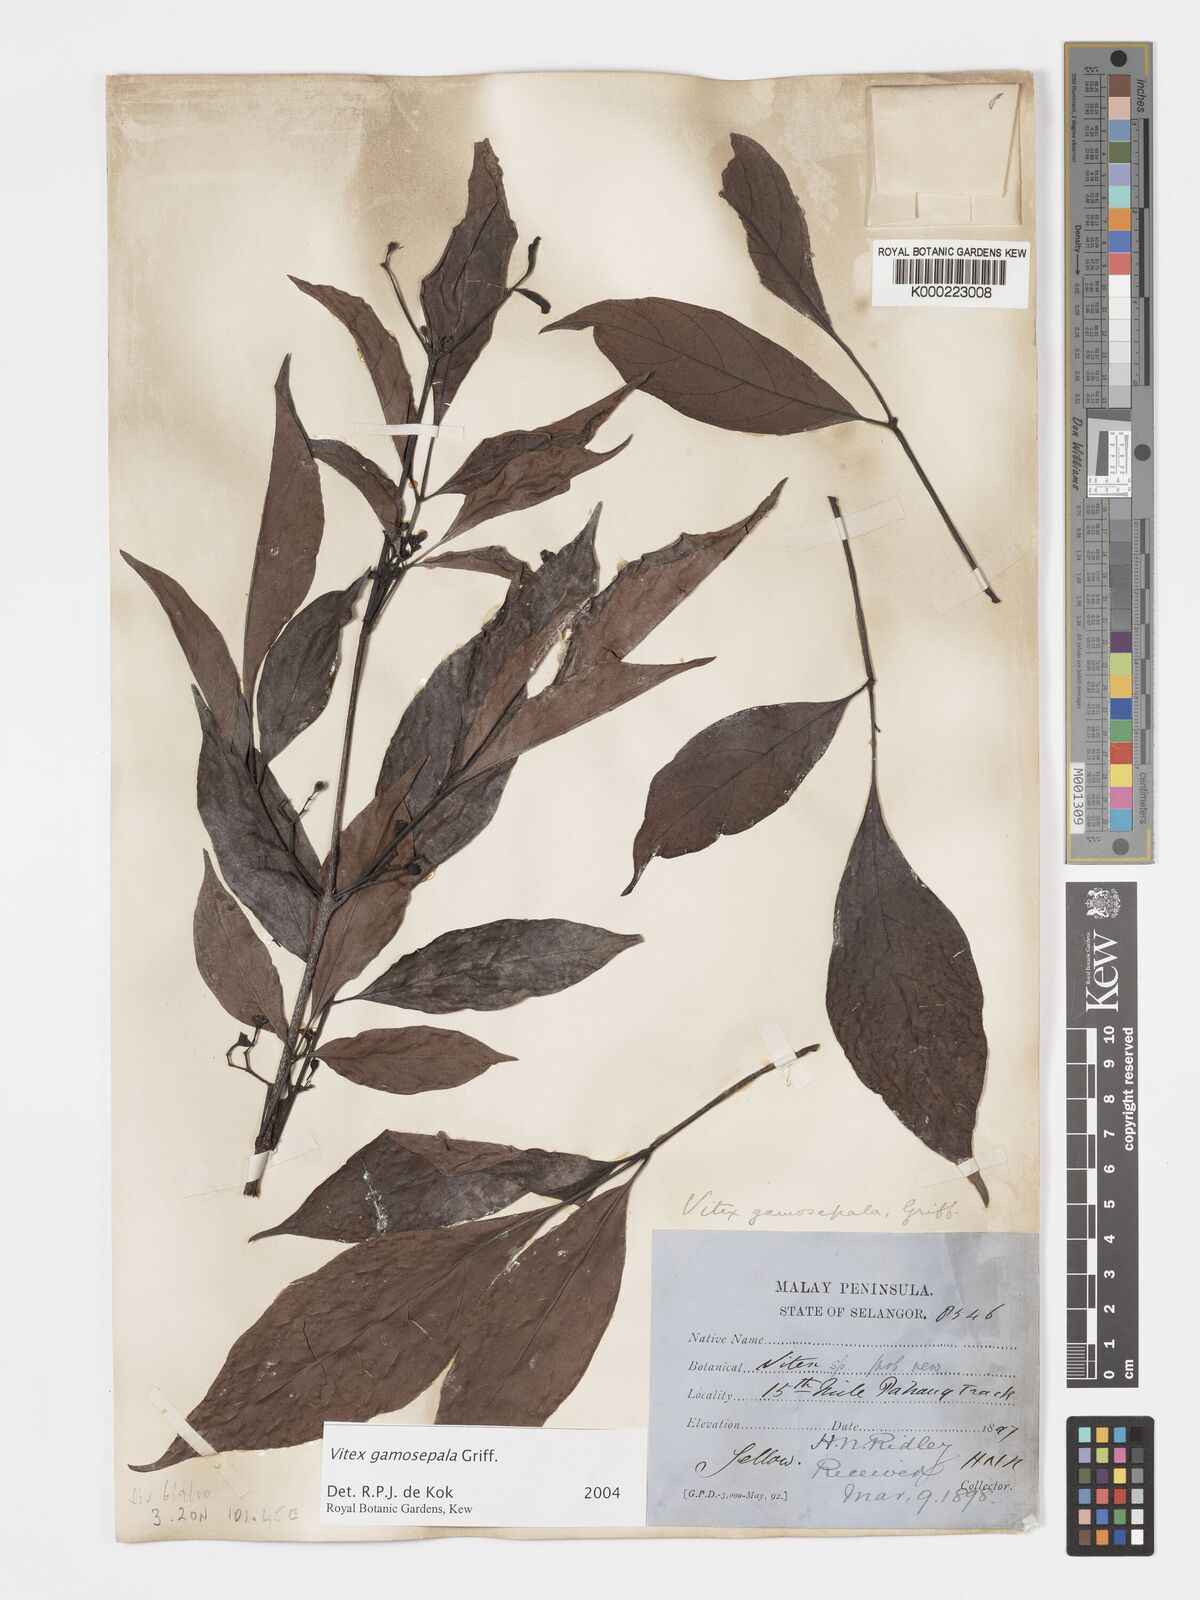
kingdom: Plantae
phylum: Tracheophyta
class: Magnoliopsida
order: Lamiales
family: Lamiaceae
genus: Vitex
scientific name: Vitex gamosepala
